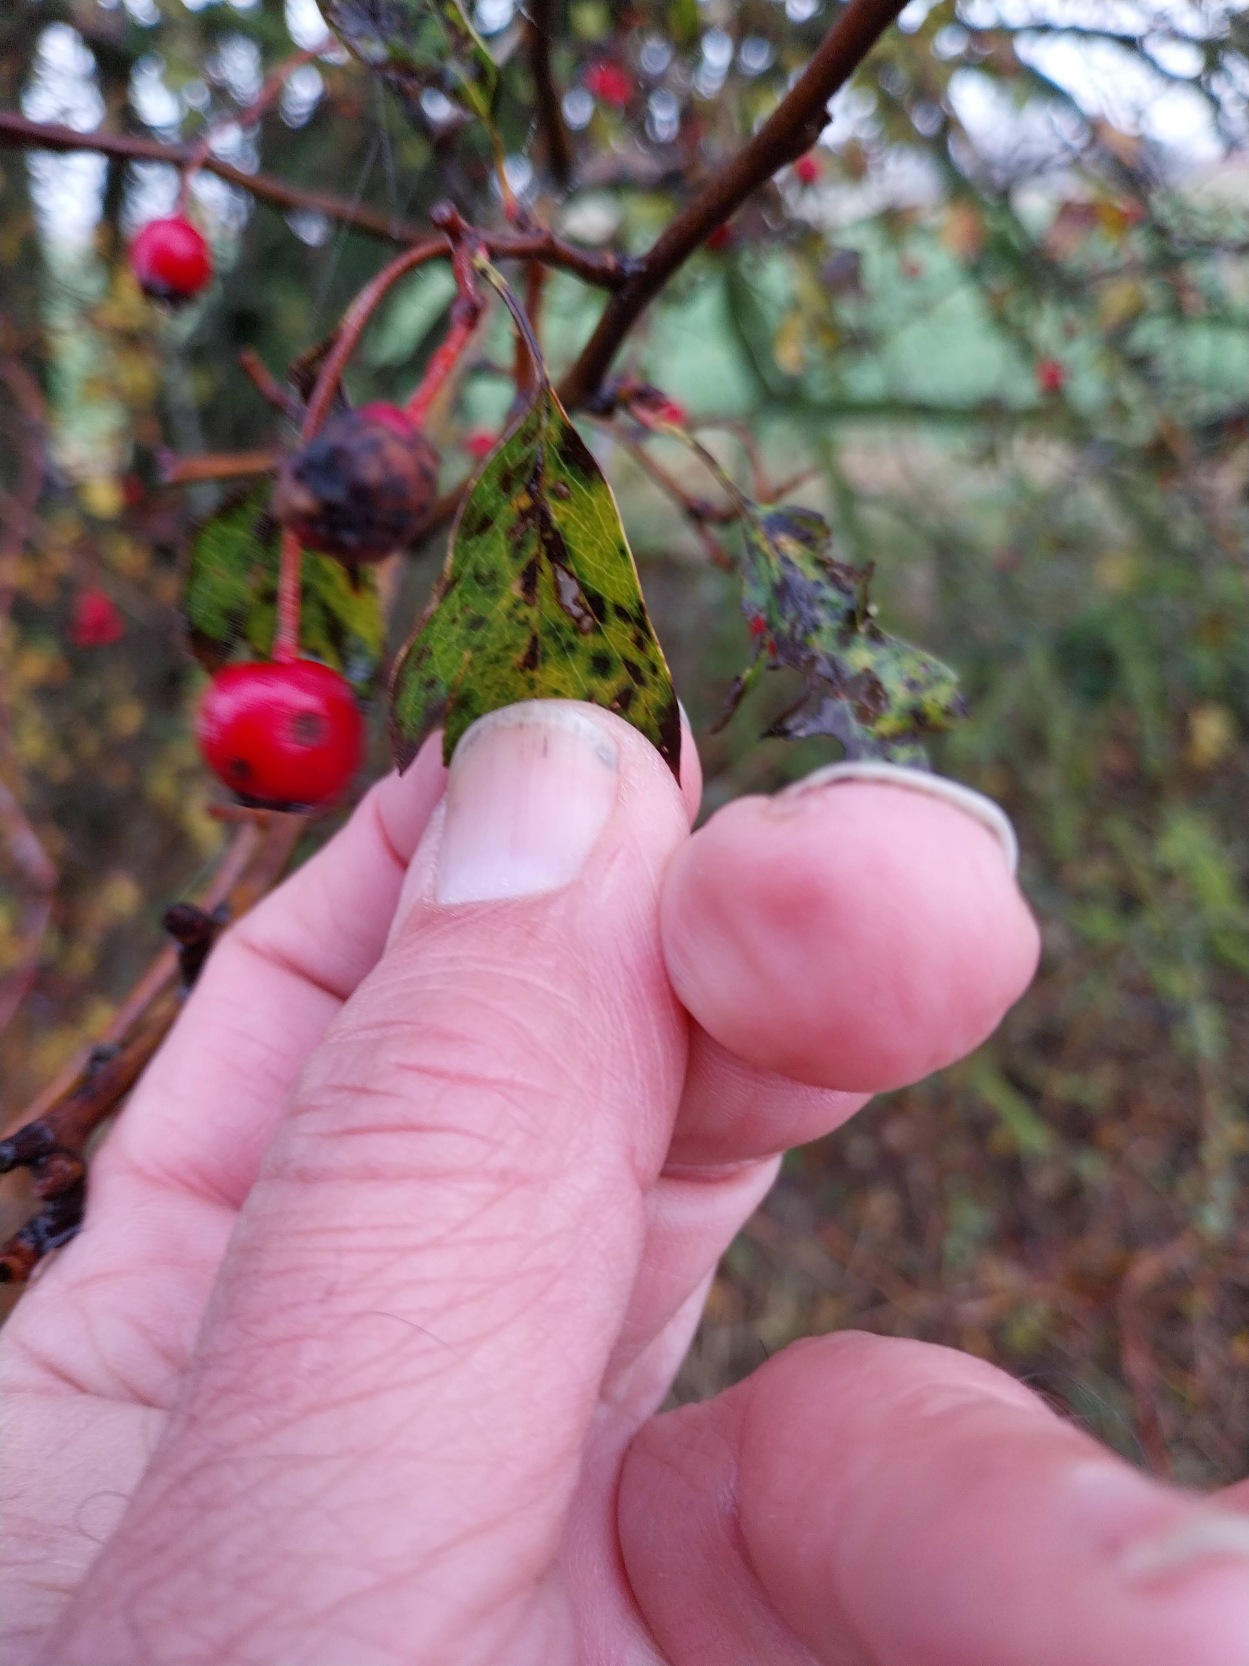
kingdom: Plantae
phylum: Tracheophyta
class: Magnoliopsida
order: Rosales
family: Rosaceae
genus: Crataegus
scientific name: Crataegus media
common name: Almindelig hvidtjørn × engriflet hvidtjørn
